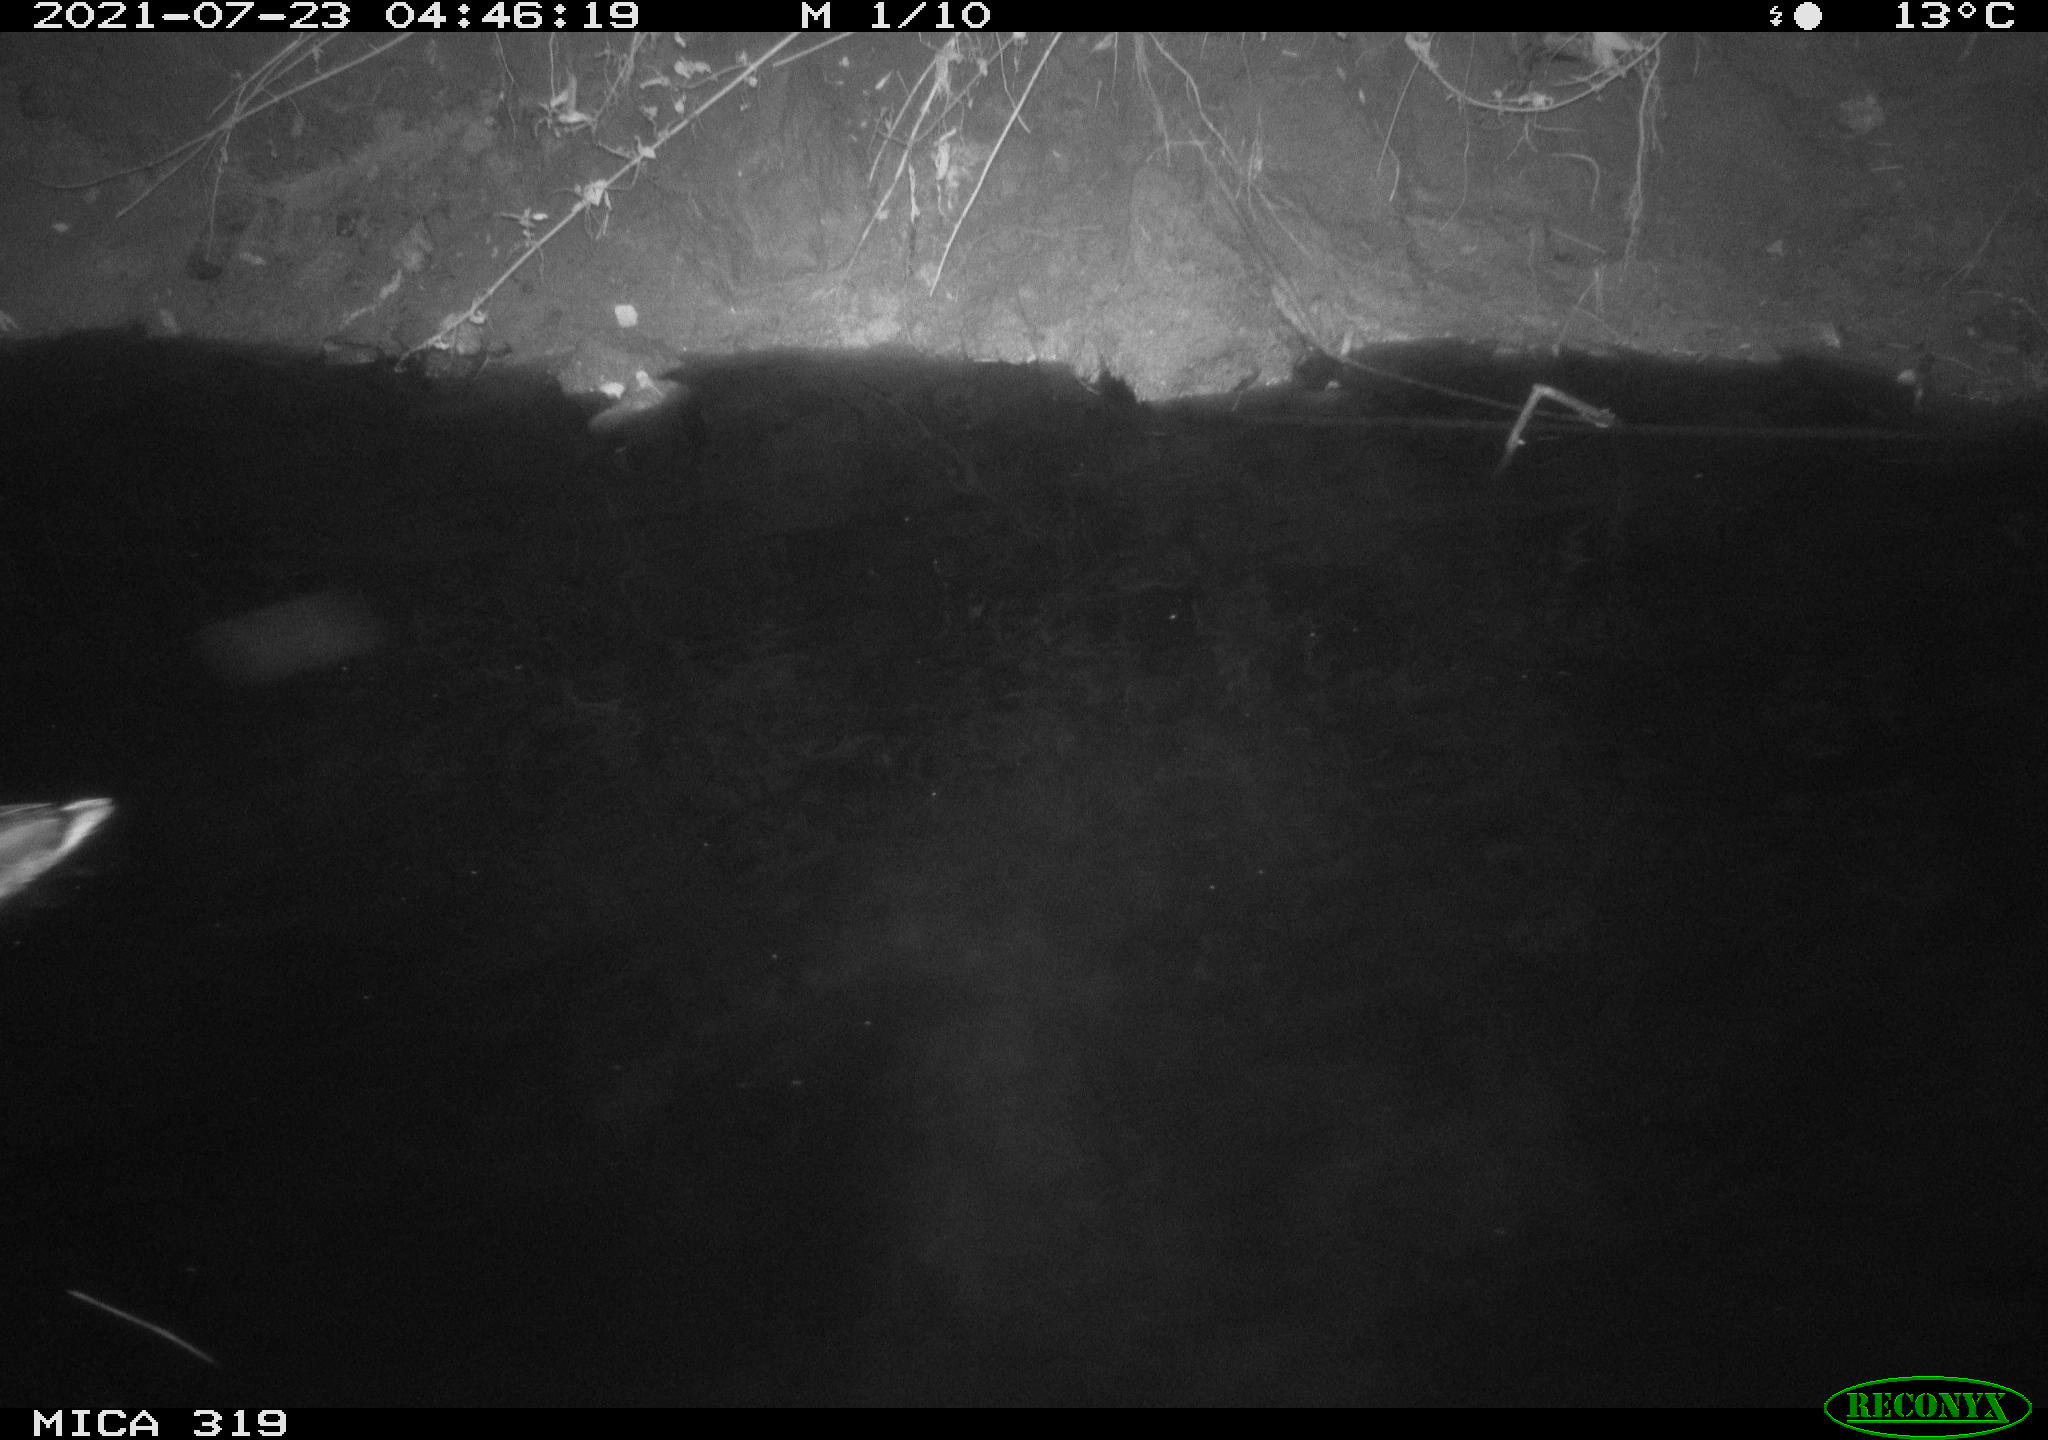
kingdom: Animalia
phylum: Chordata
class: Aves
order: Anseriformes
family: Anatidae
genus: Anas
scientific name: Anas platyrhynchos
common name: Mallard
